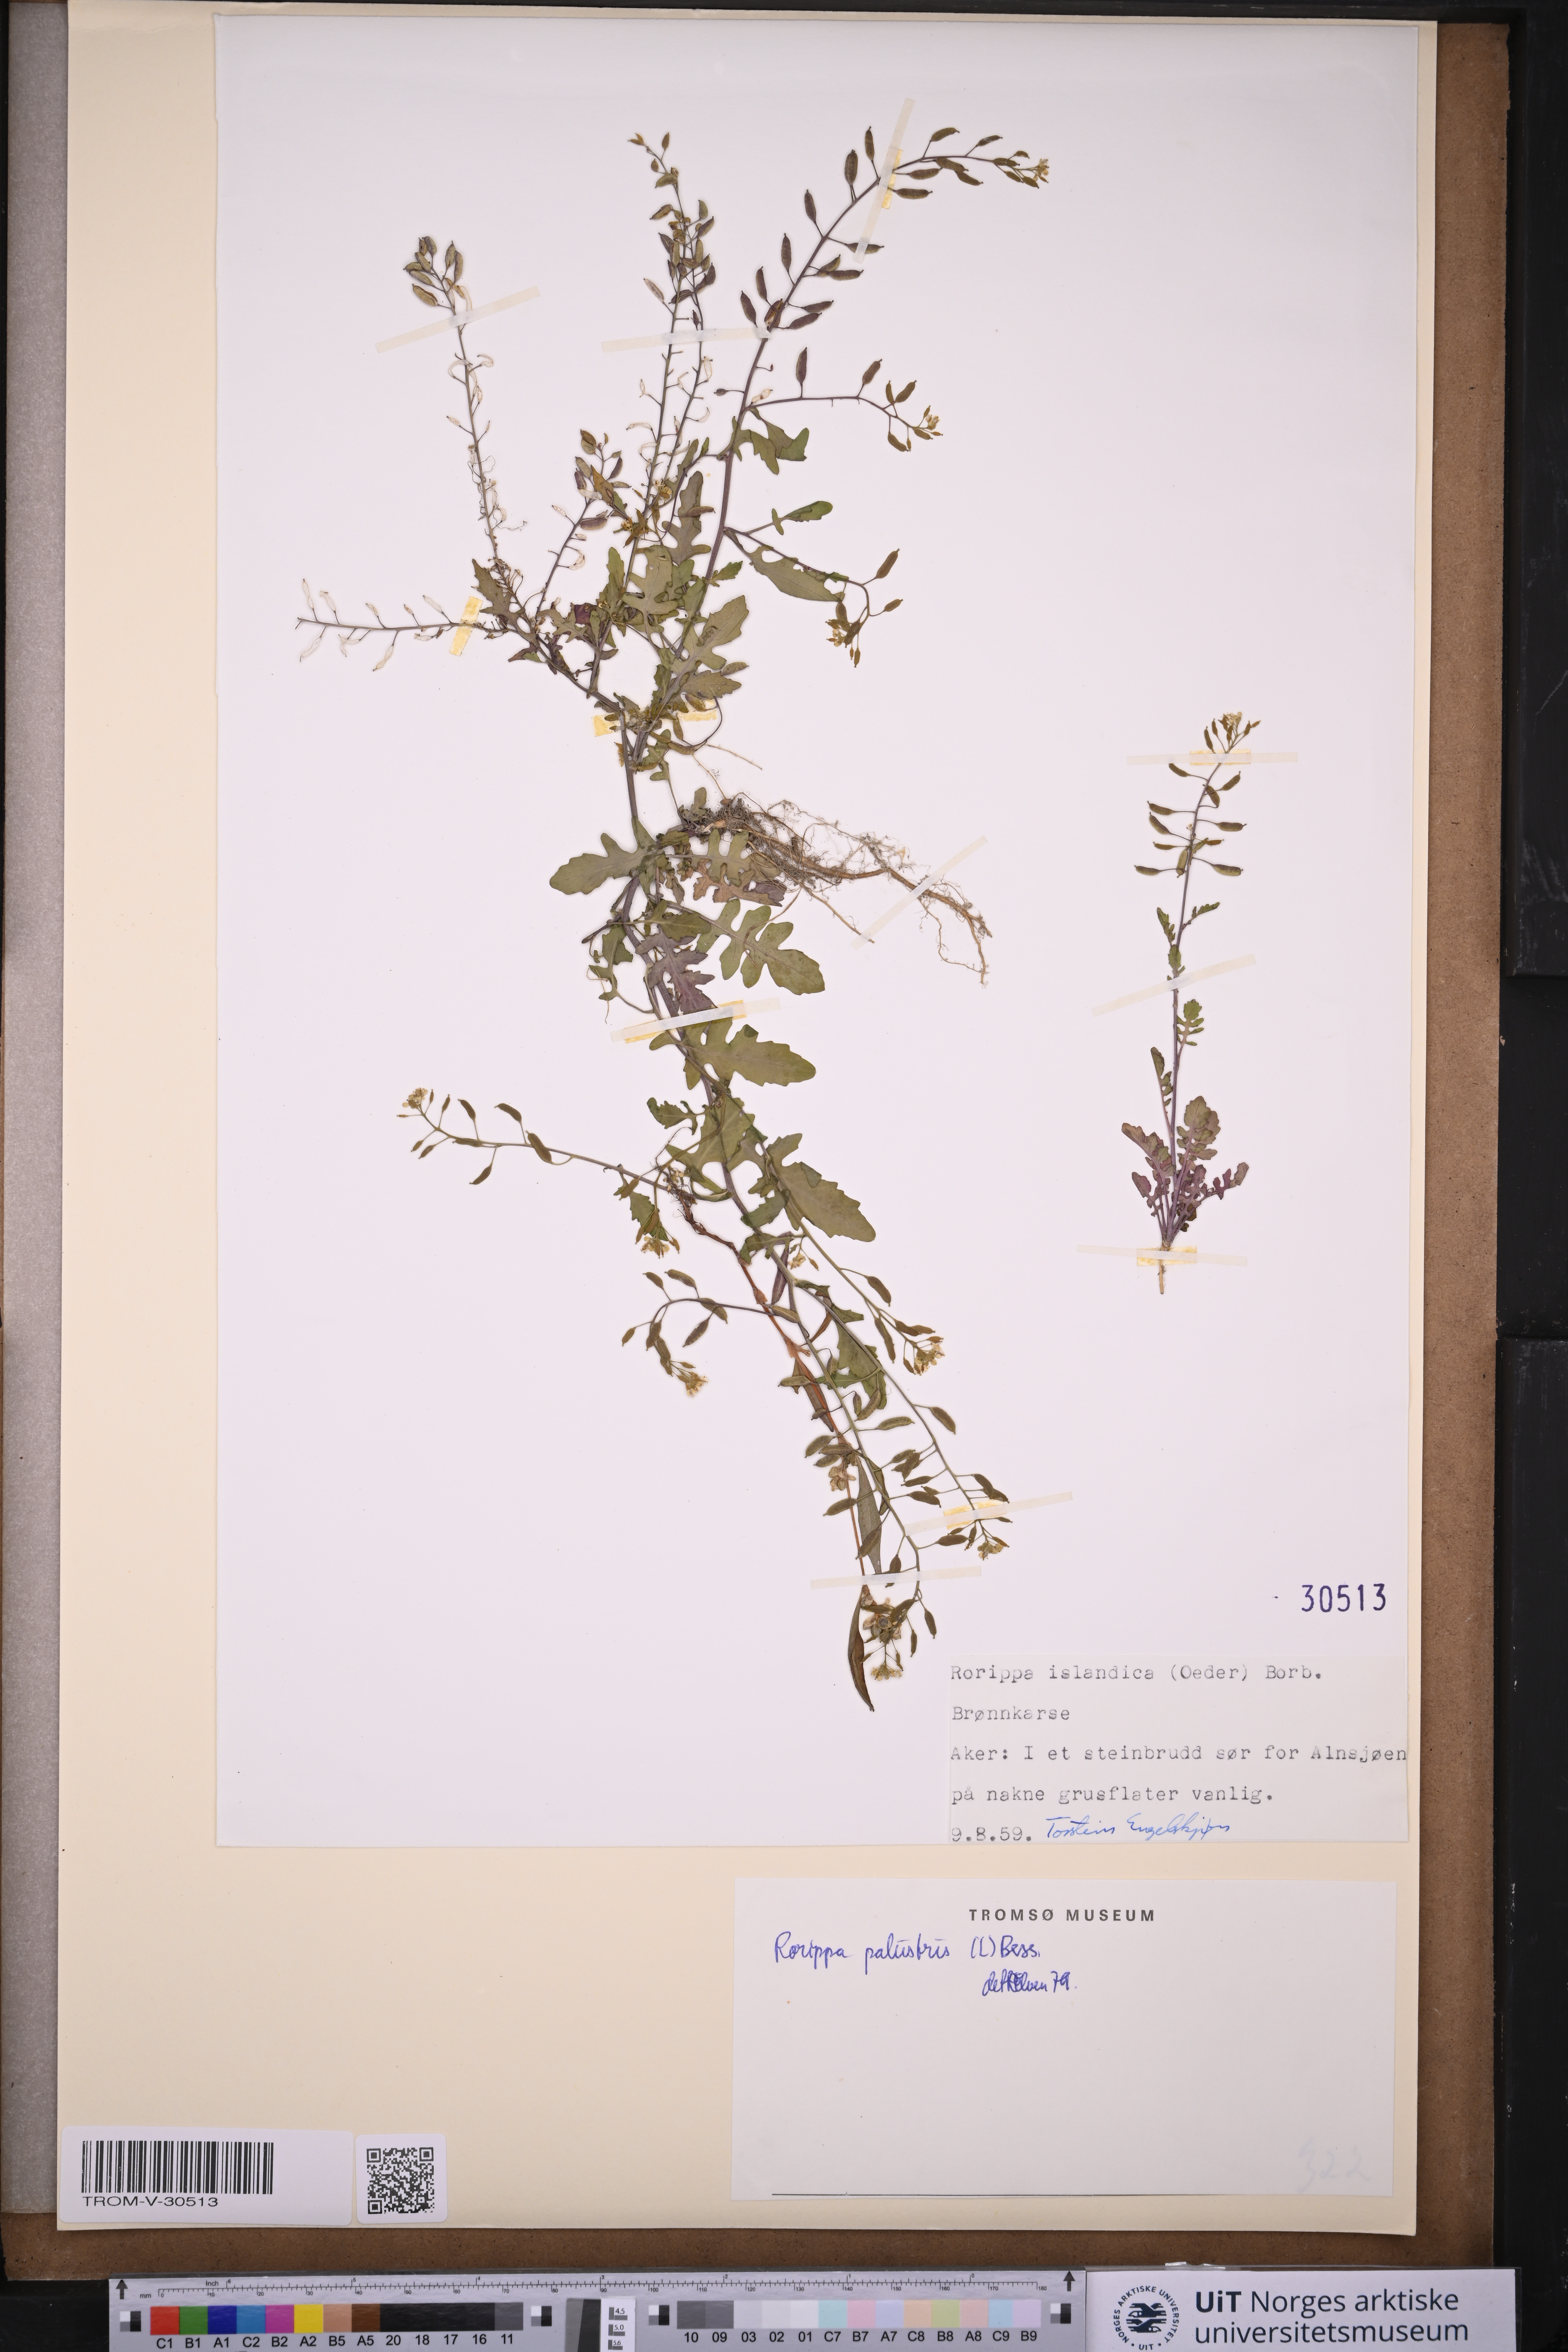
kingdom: Plantae
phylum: Tracheophyta
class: Magnoliopsida
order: Brassicales
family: Brassicaceae
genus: Rorippa
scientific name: Rorippa palustris
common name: Marsh yellow-cress
